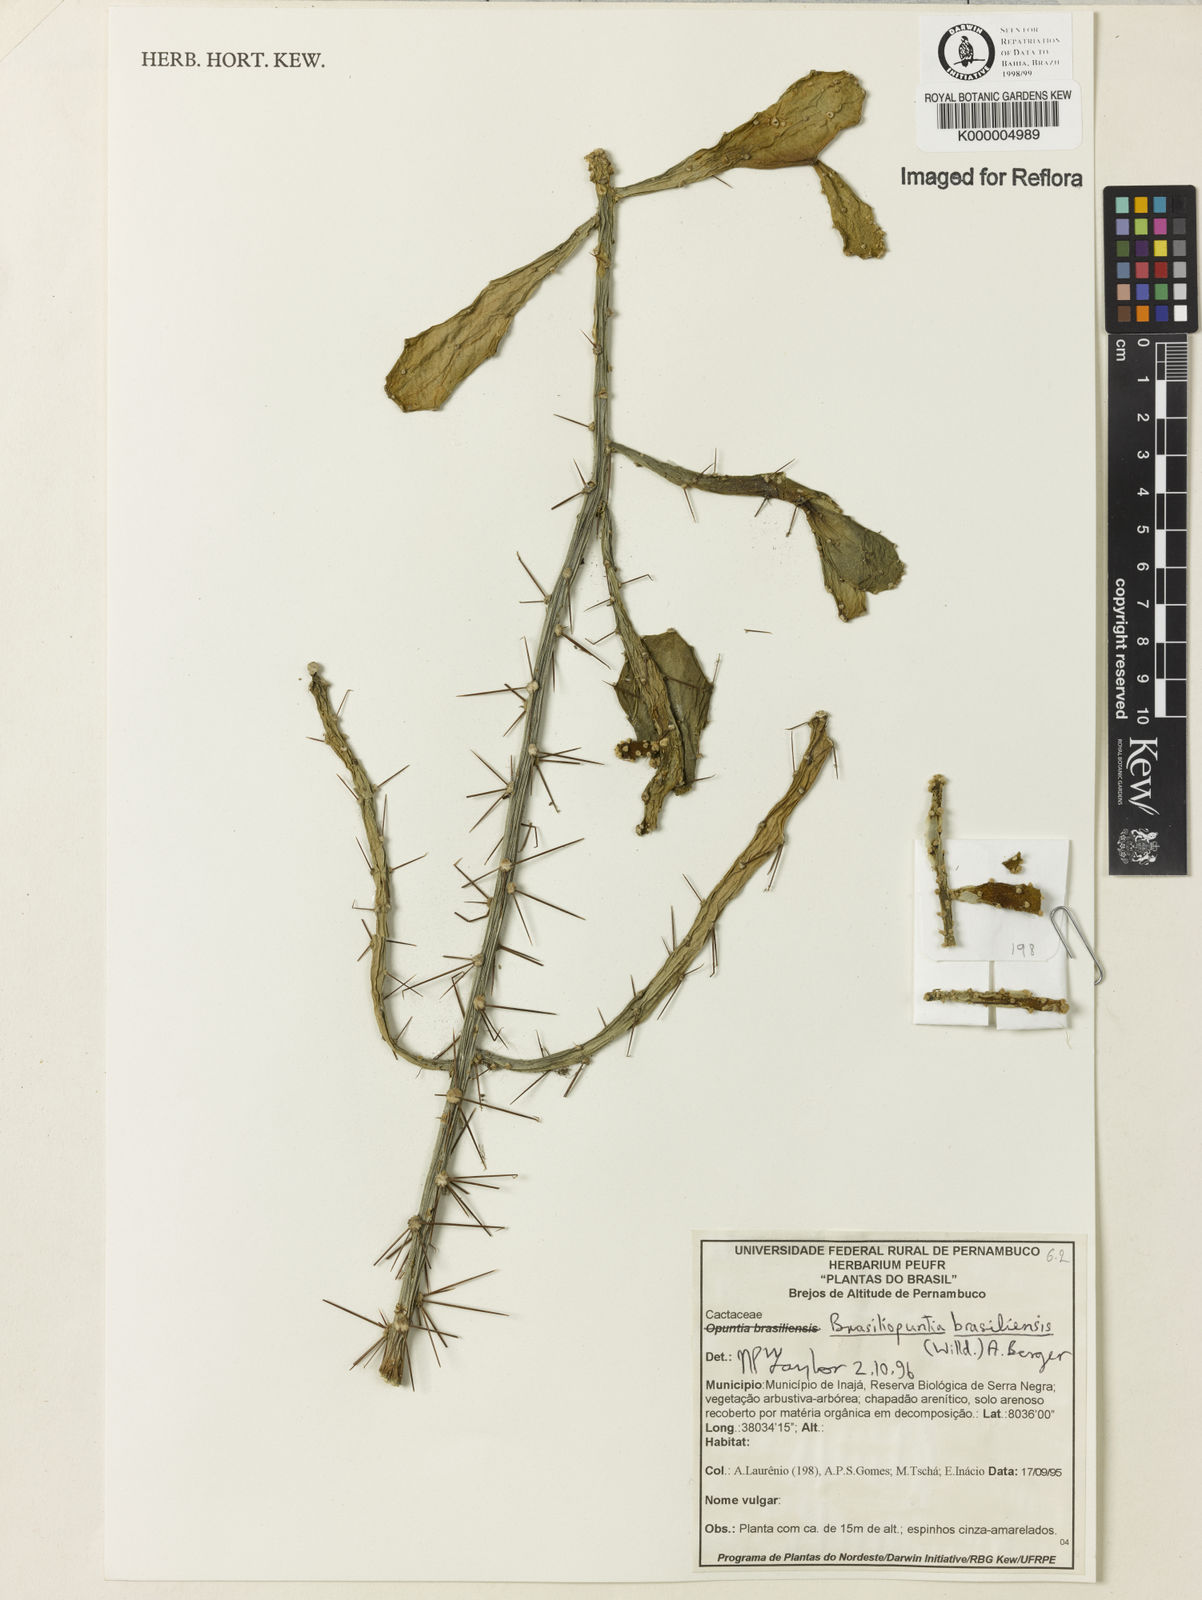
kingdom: Plantae
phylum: Tracheophyta
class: Magnoliopsida
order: Caryophyllales
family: Cactaceae
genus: Brasiliopuntia
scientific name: Brasiliopuntia brasiliensis
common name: Brazilian pricklypear
